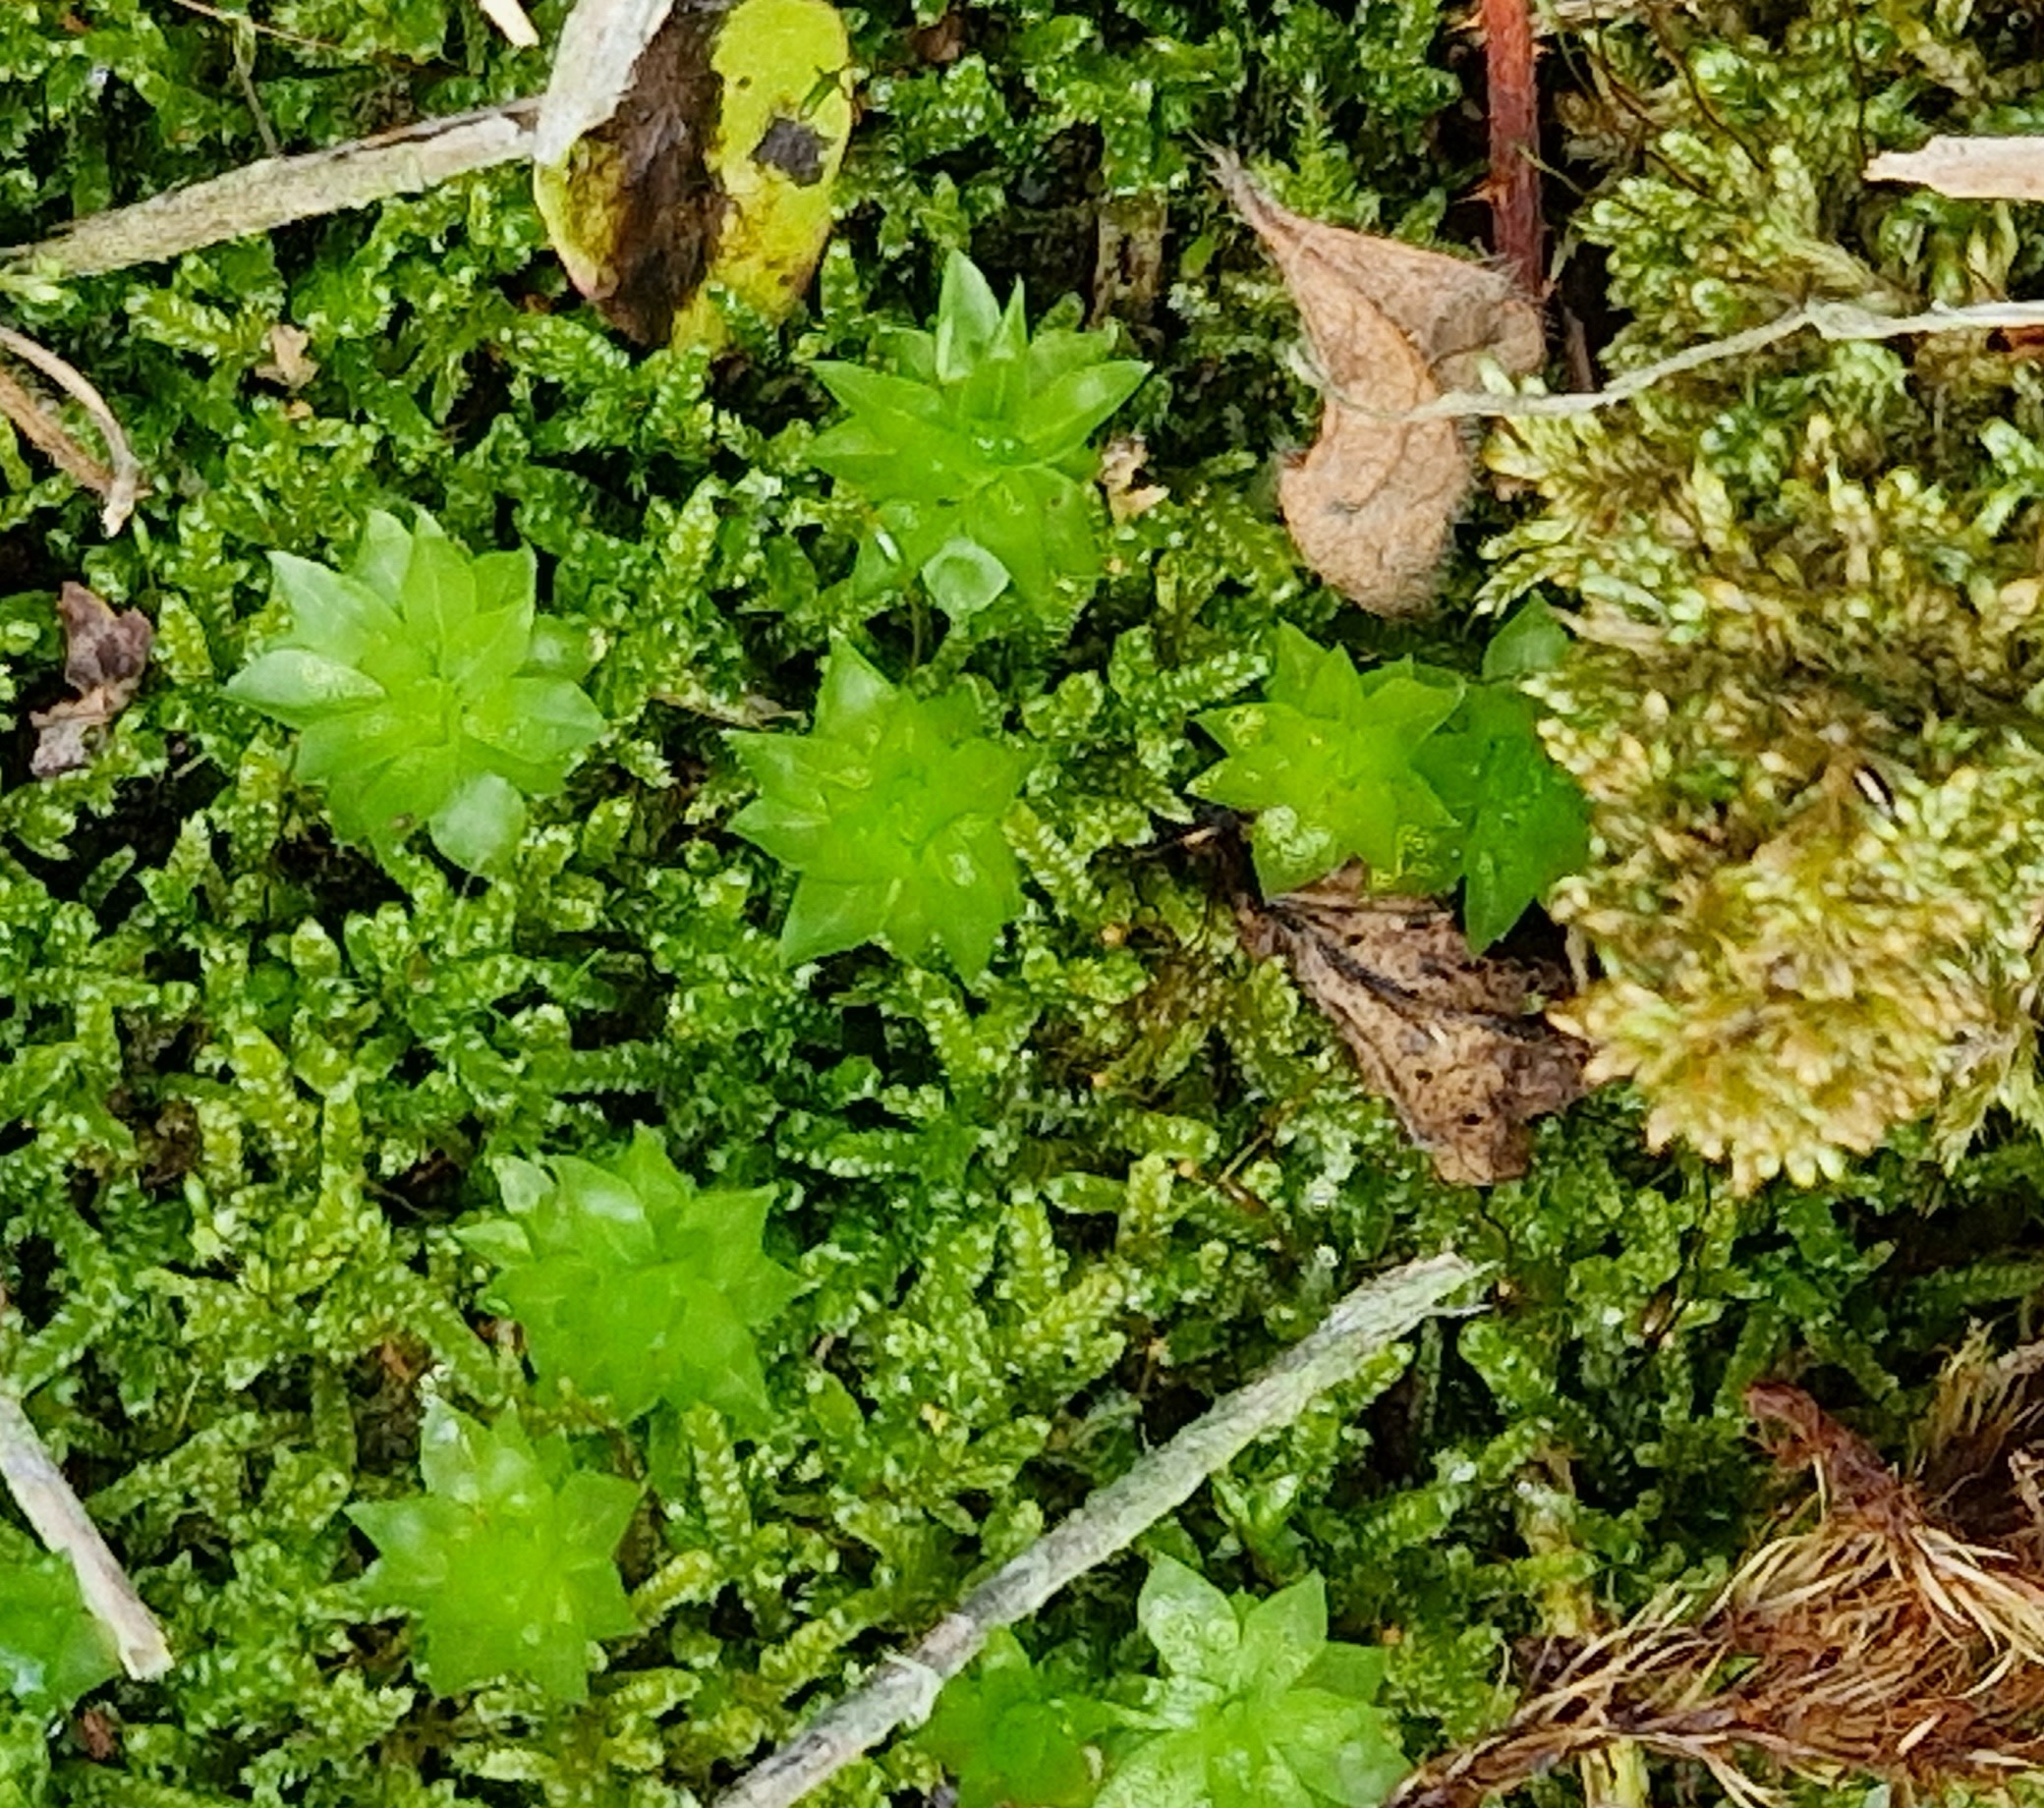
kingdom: Plantae
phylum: Bryophyta
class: Bryopsida
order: Bryales
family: Bryaceae
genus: Rhodobryum
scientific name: Rhodobryum roseum
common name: Stor rosetmos
